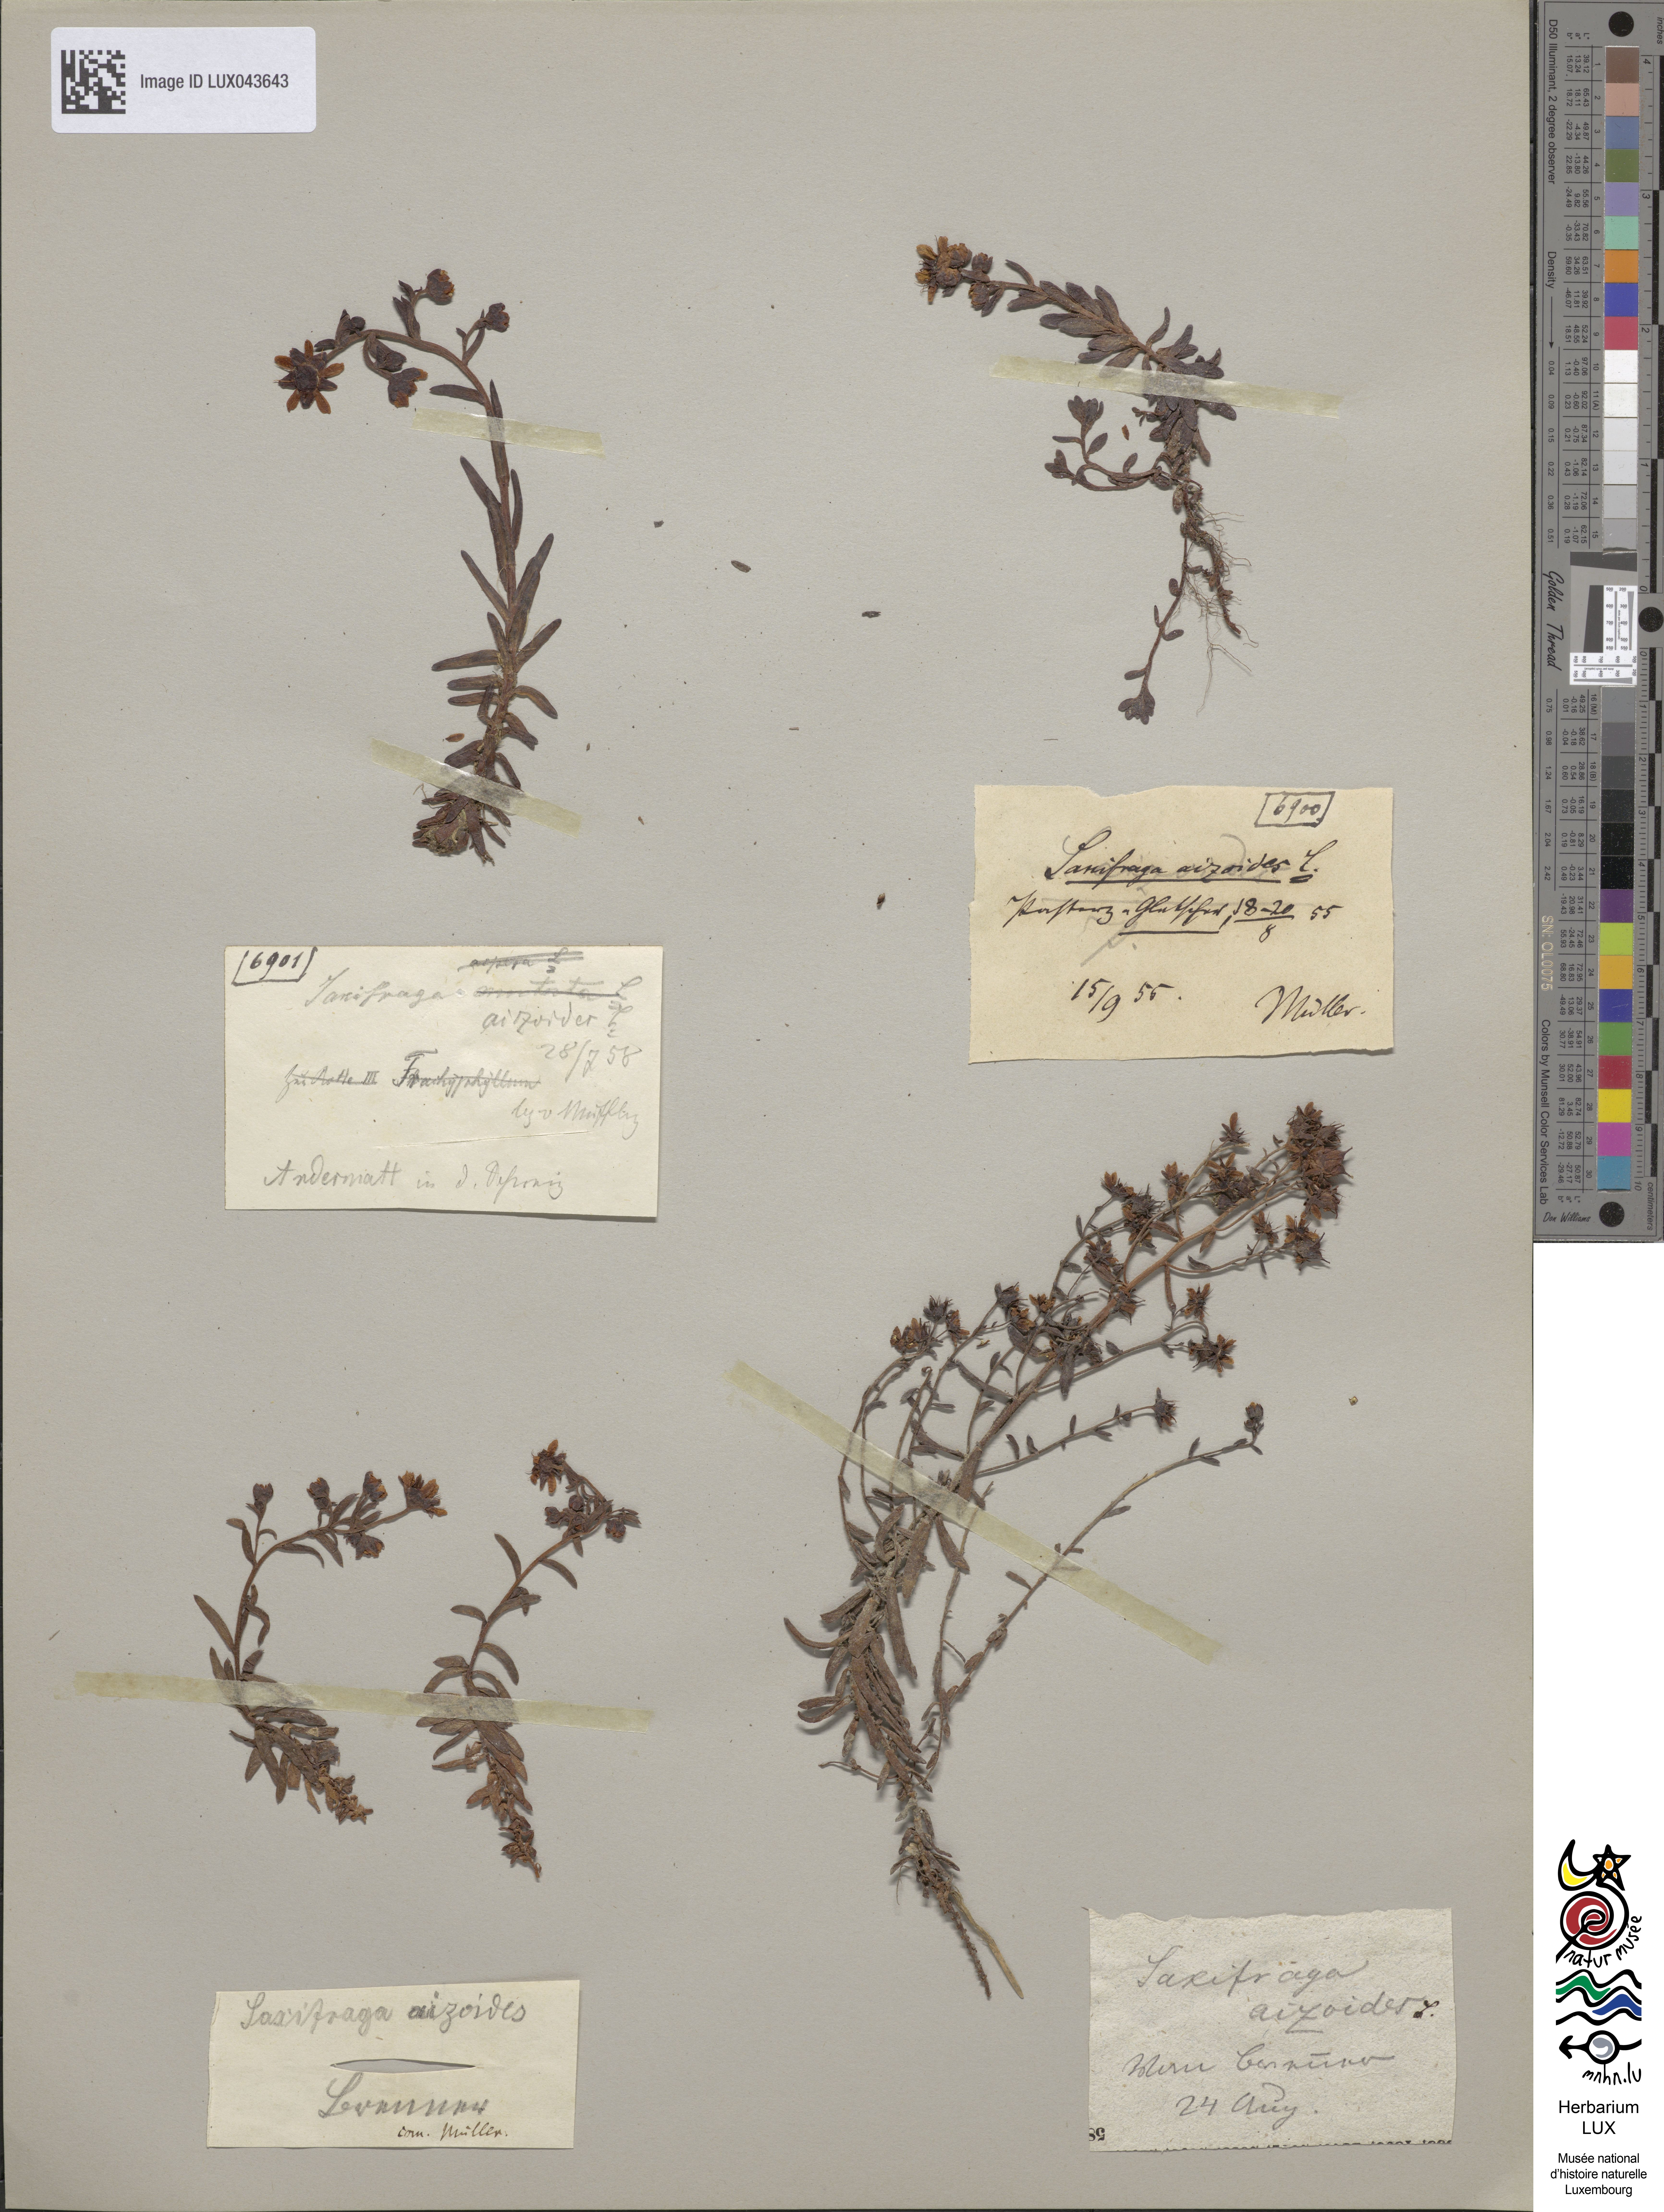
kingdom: Plantae
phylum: Tracheophyta
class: Magnoliopsida
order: Saxifragales
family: Saxifragaceae
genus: Saxifraga
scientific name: Saxifraga aizoides
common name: Yellow mountain saxifrage
